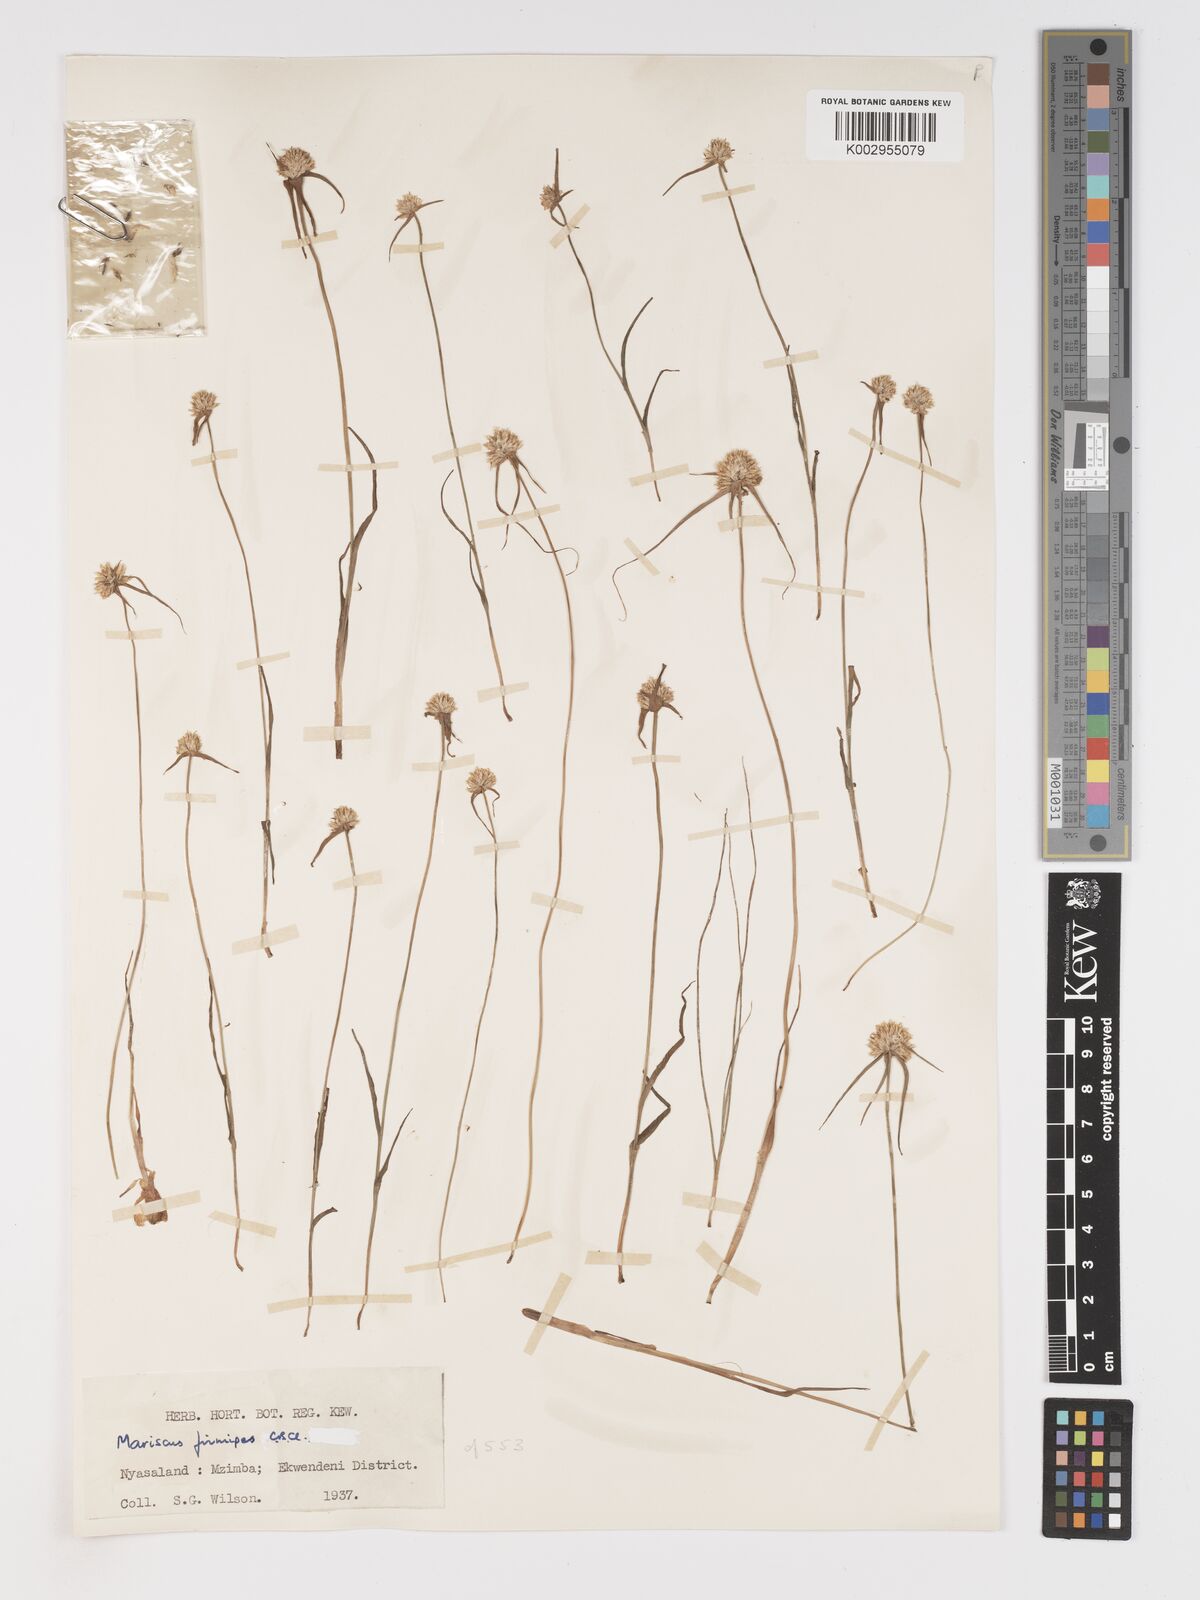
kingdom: Plantae
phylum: Tracheophyta
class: Liliopsida
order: Poales
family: Cyperaceae
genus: Cyperus
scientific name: Cyperus mollipes
